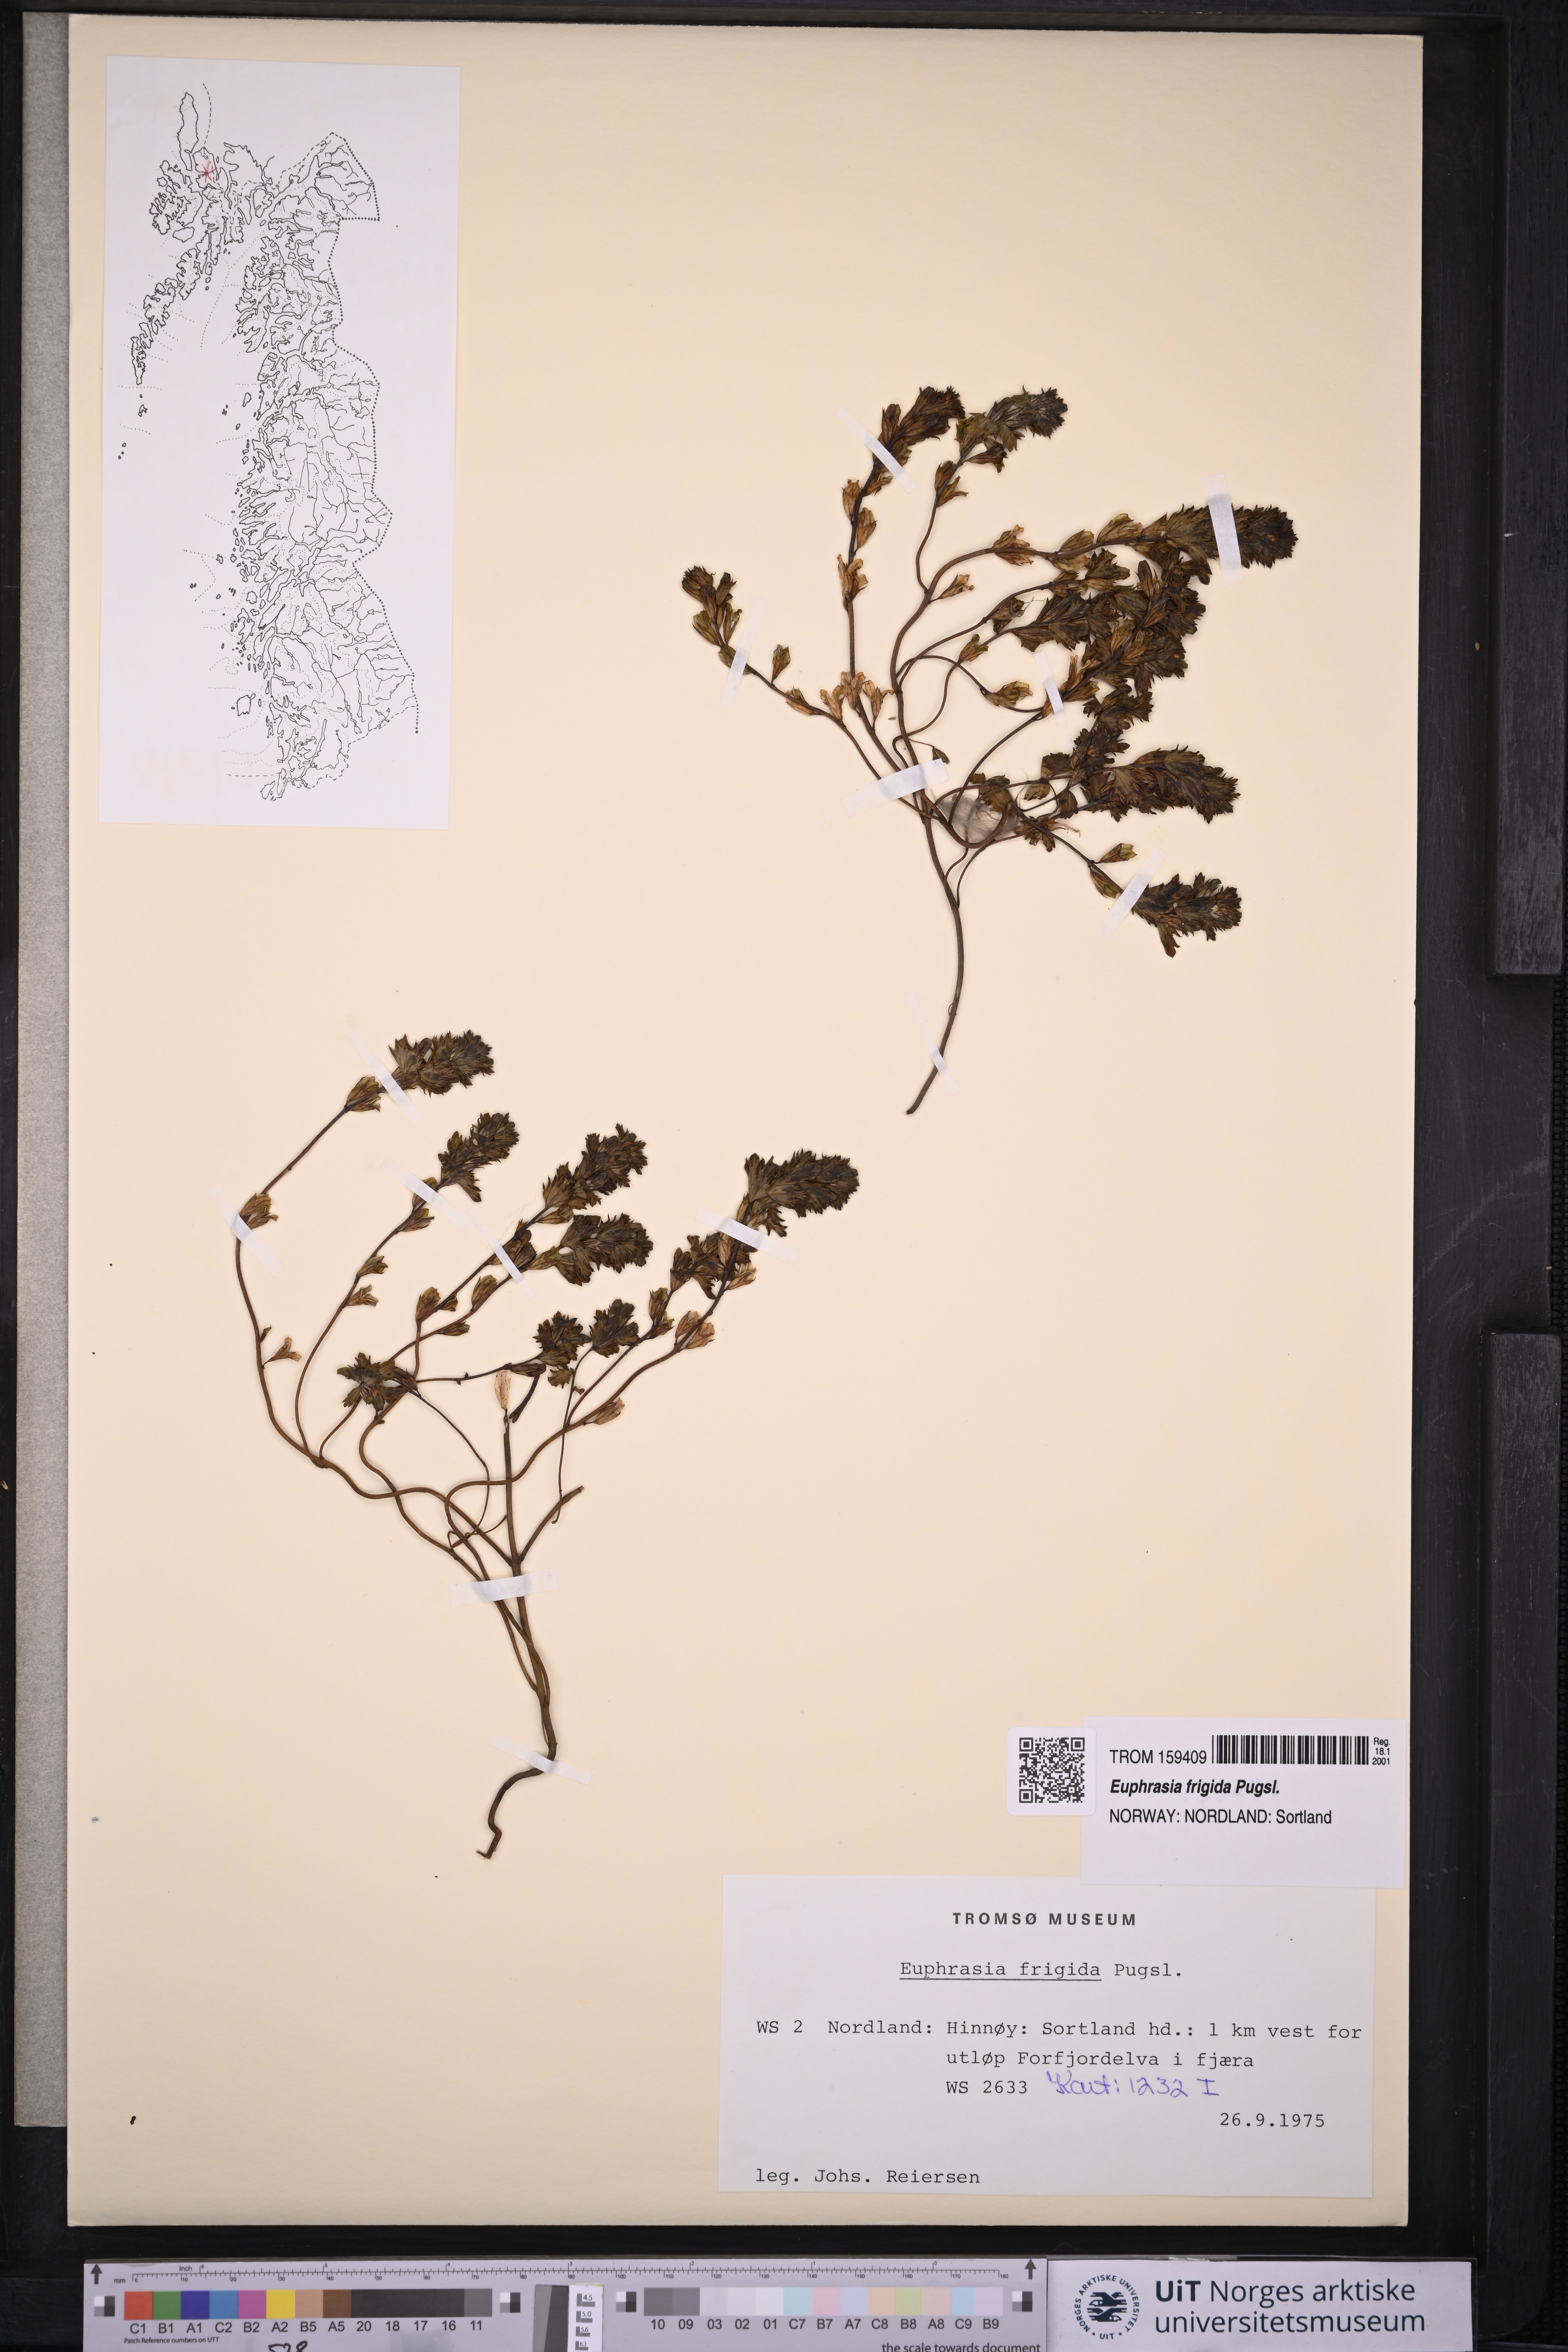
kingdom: Plantae
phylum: Tracheophyta
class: Magnoliopsida
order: Lamiales
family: Orobanchaceae
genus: Euphrasia
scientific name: Euphrasia frigida
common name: An eyebright
